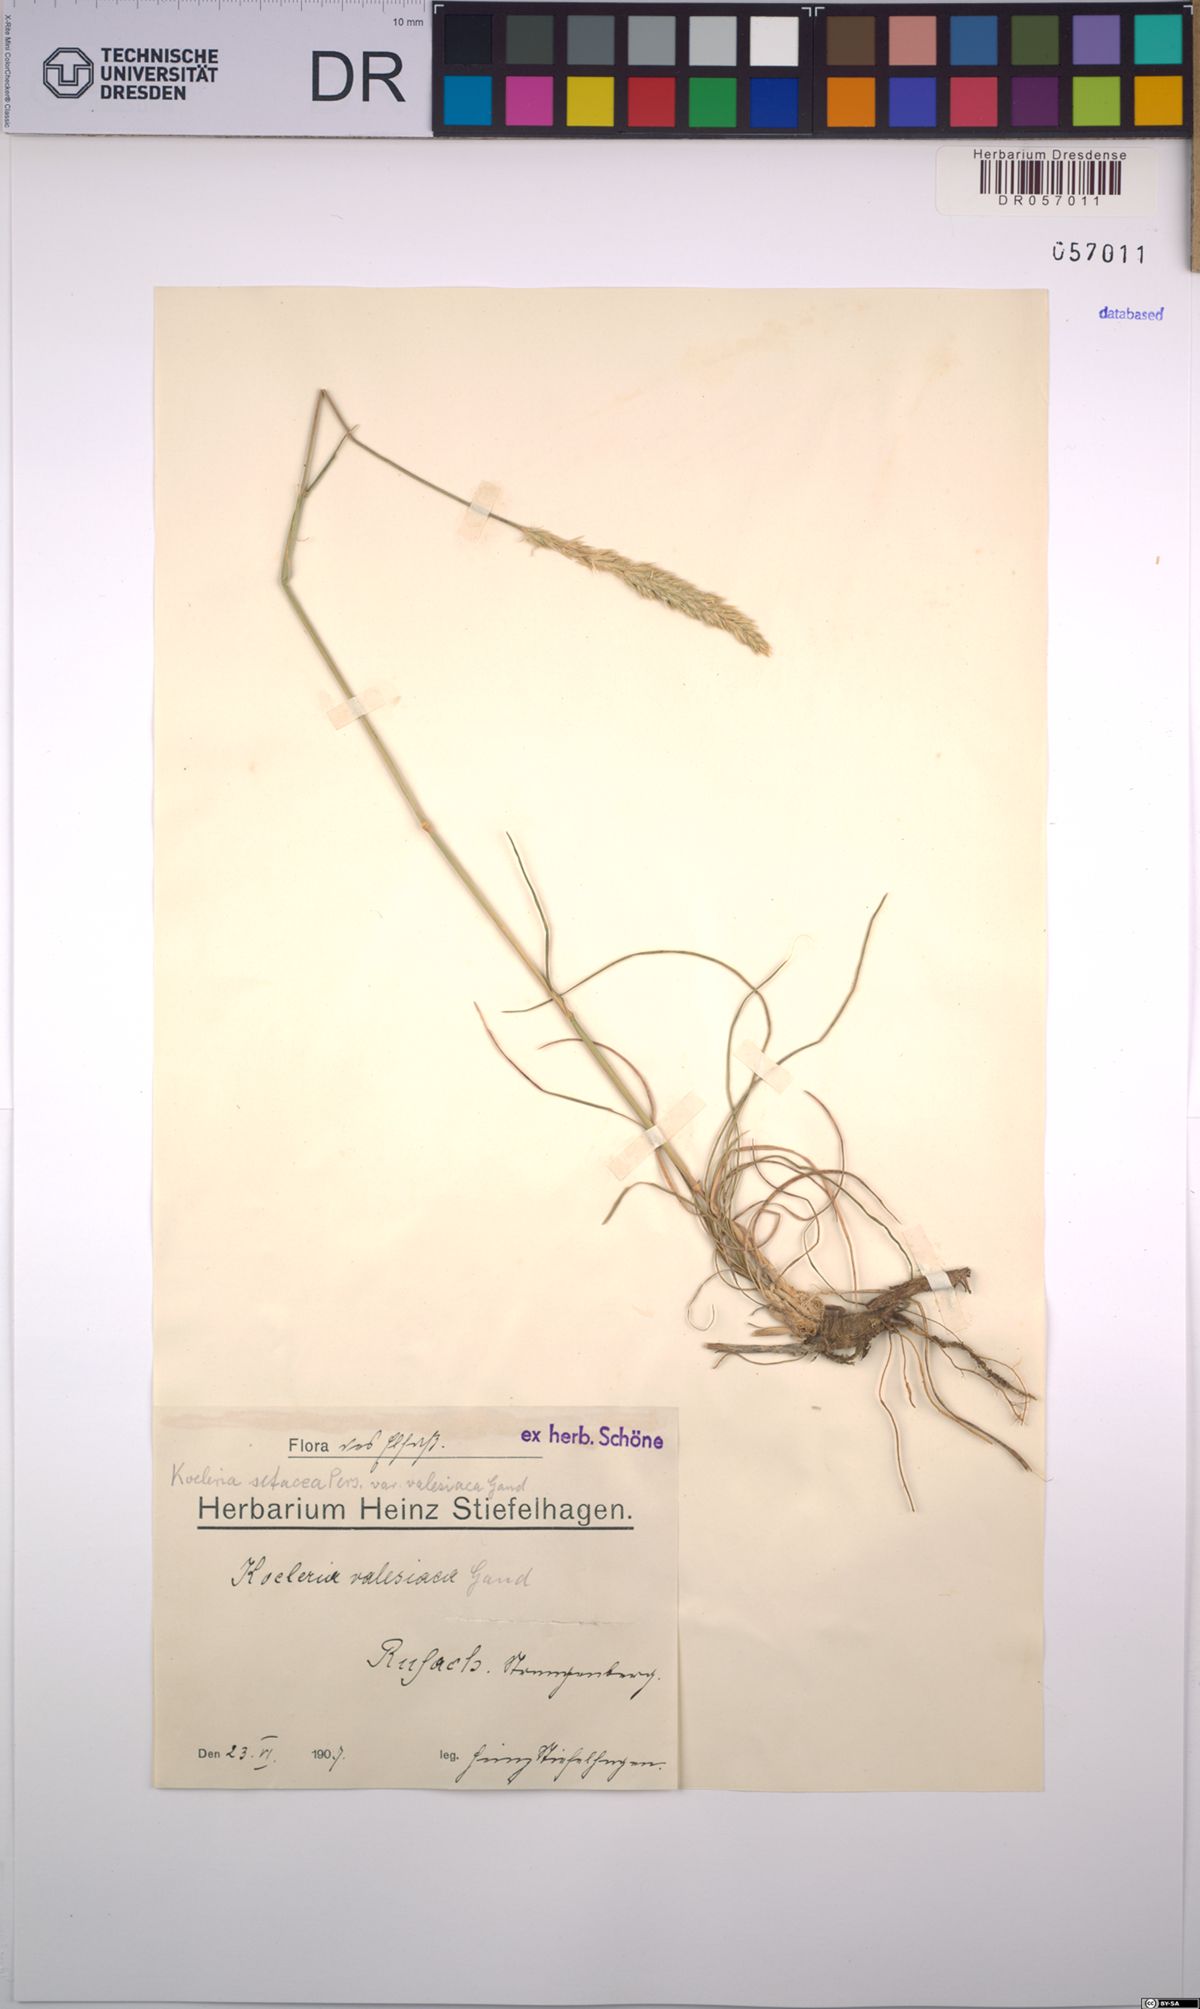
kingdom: Plantae
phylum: Tracheophyta
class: Liliopsida
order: Poales
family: Poaceae
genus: Koeleria
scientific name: Koeleria vallesiana
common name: Somerset hair-grass
